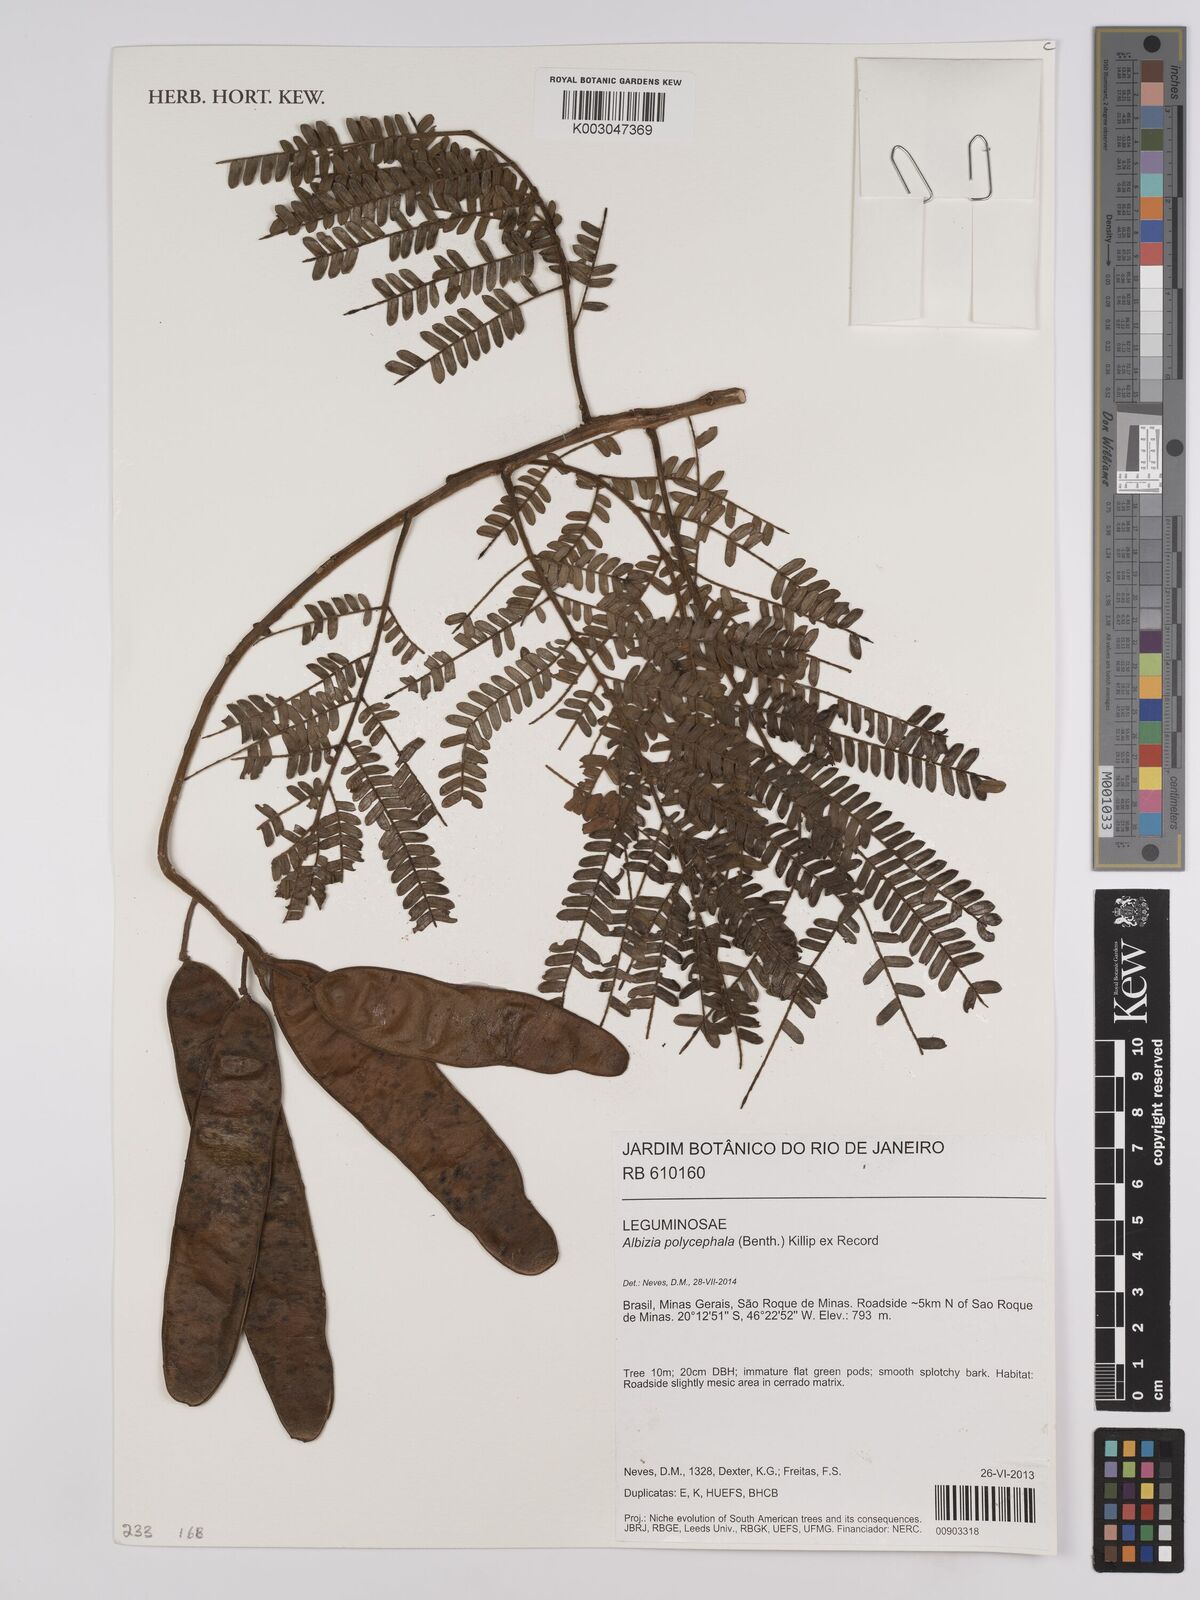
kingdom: Plantae
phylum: Tracheophyta
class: Magnoliopsida
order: Fabales
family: Fabaceae
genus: Albizia
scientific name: Albizia polycephala
